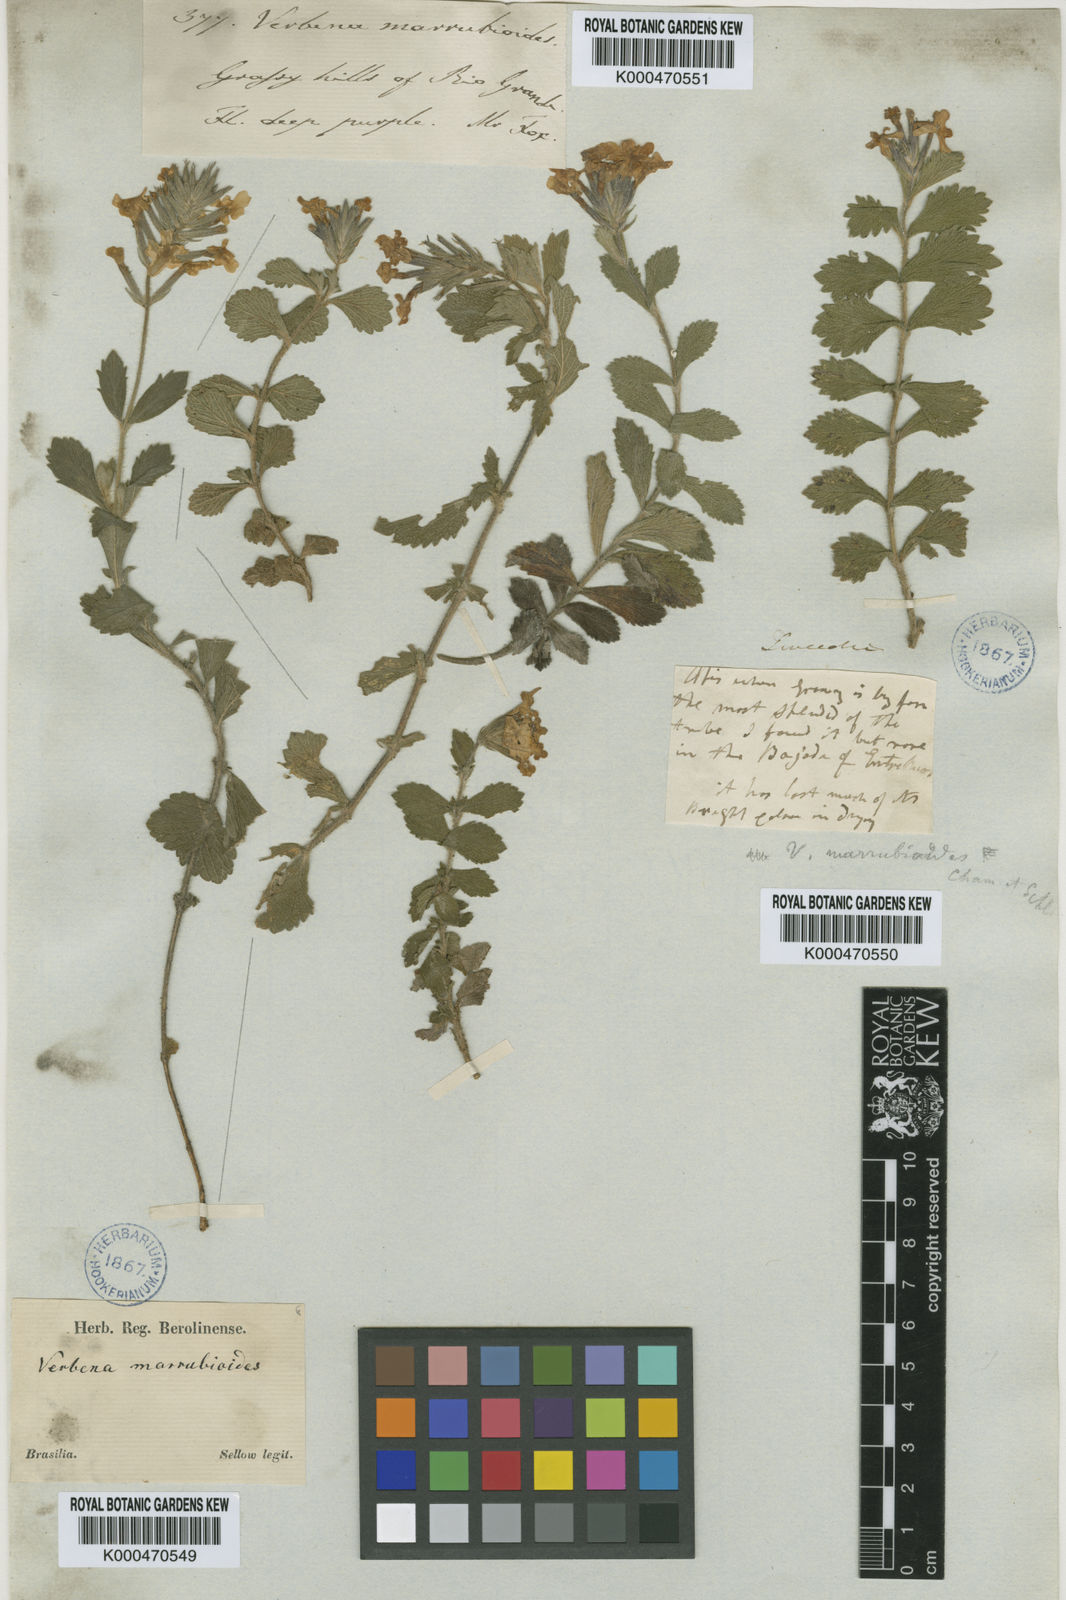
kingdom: Plantae
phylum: Tracheophyta
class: Magnoliopsida
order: Lamiales
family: Verbenaceae
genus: Verbena
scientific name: Verbena marrubioides
